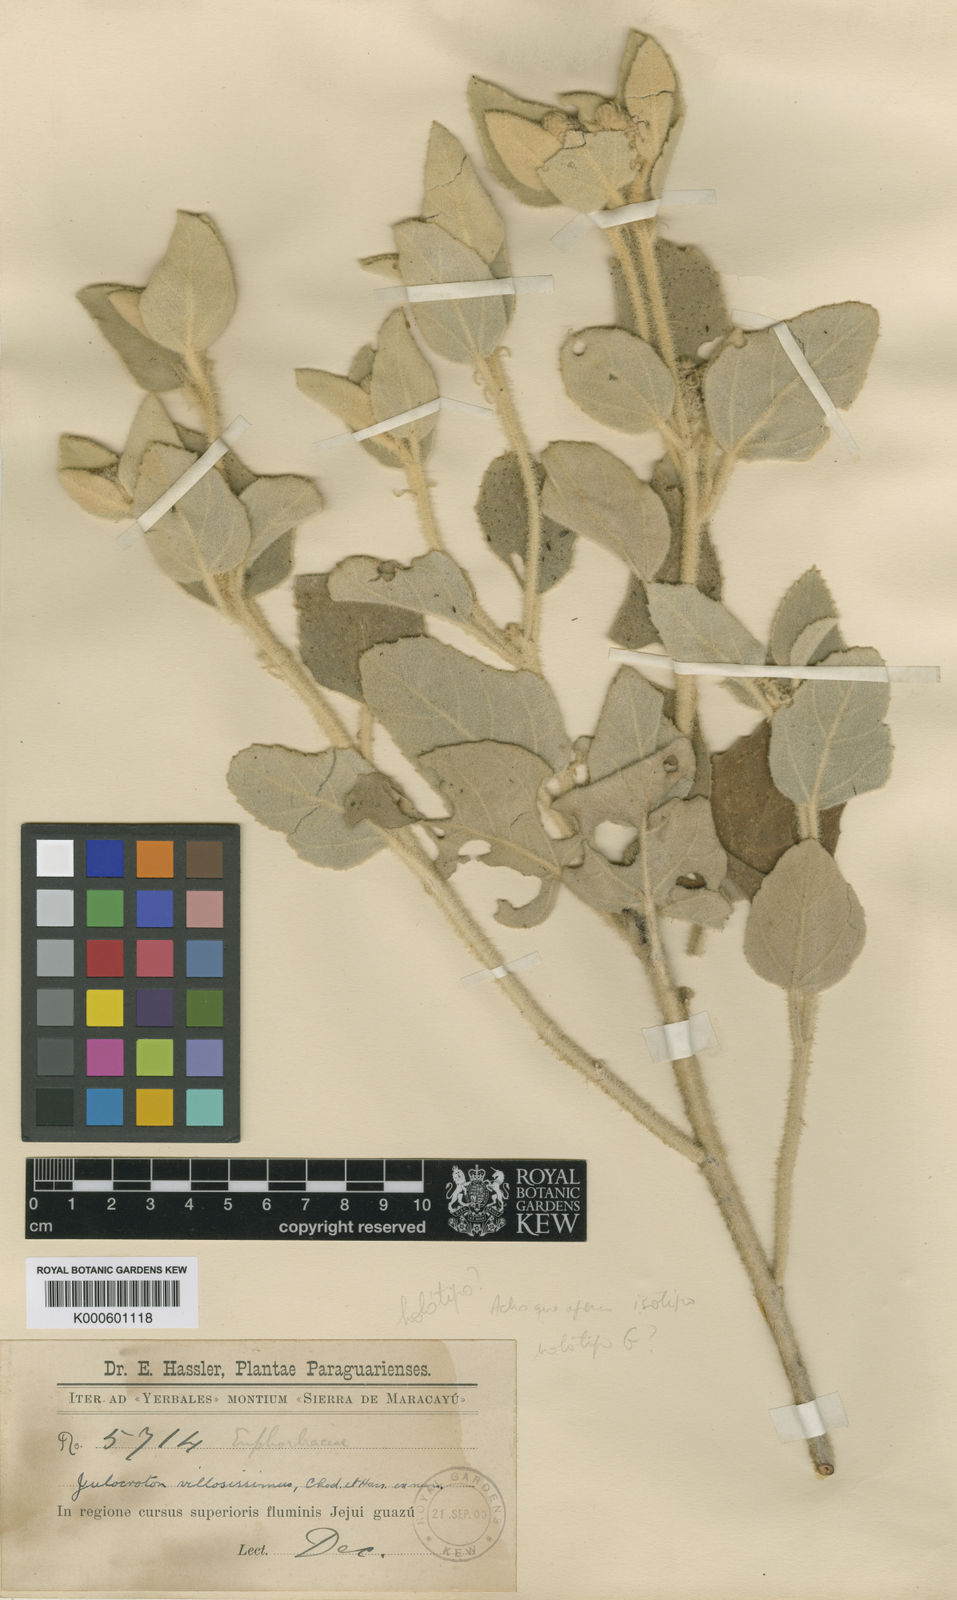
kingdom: Plantae
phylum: Tracheophyta
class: Magnoliopsida
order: Malpighiales
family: Euphorbiaceae
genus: Croton
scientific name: Croton villosissimus
